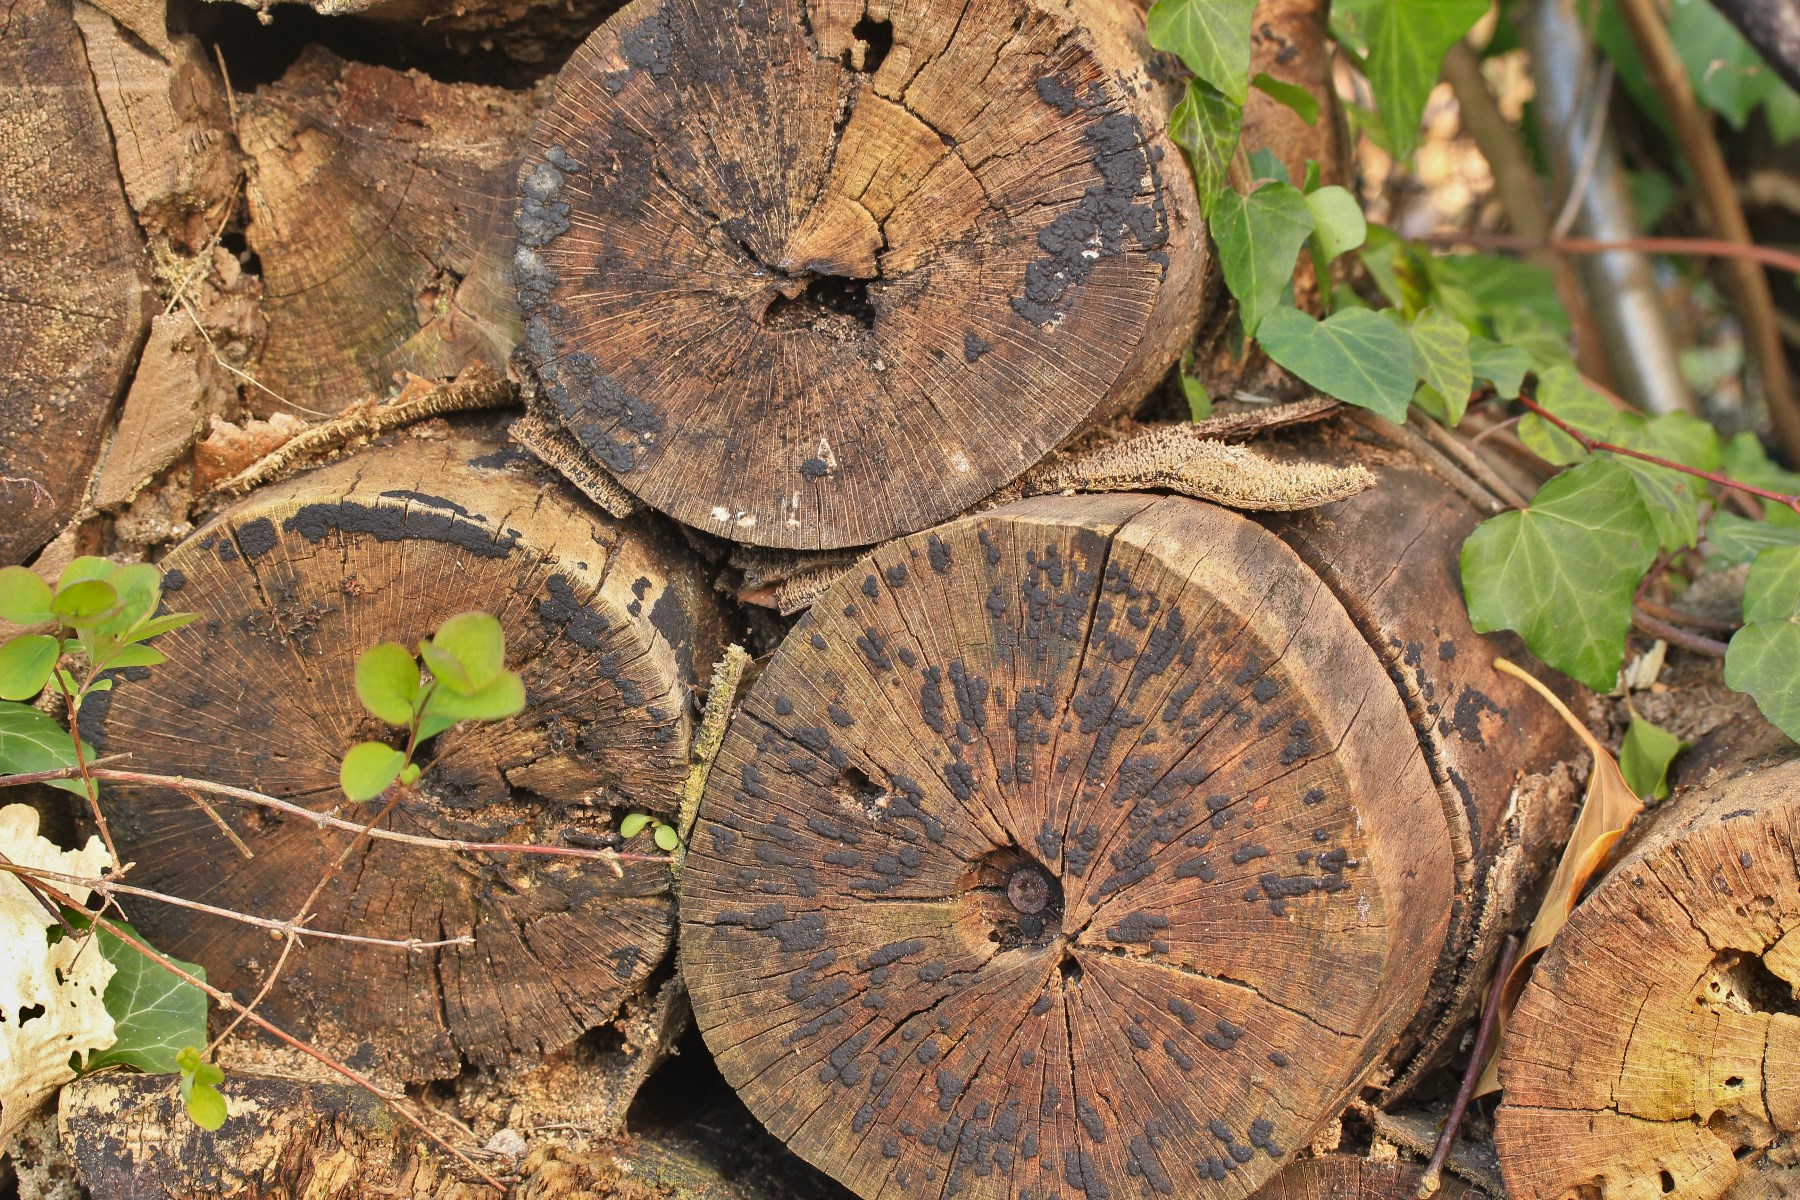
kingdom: Fungi
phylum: Ascomycota
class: Sordariomycetes
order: Xylariales
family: Xylariaceae
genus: Nemania
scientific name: Nemania
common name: kuldyne
